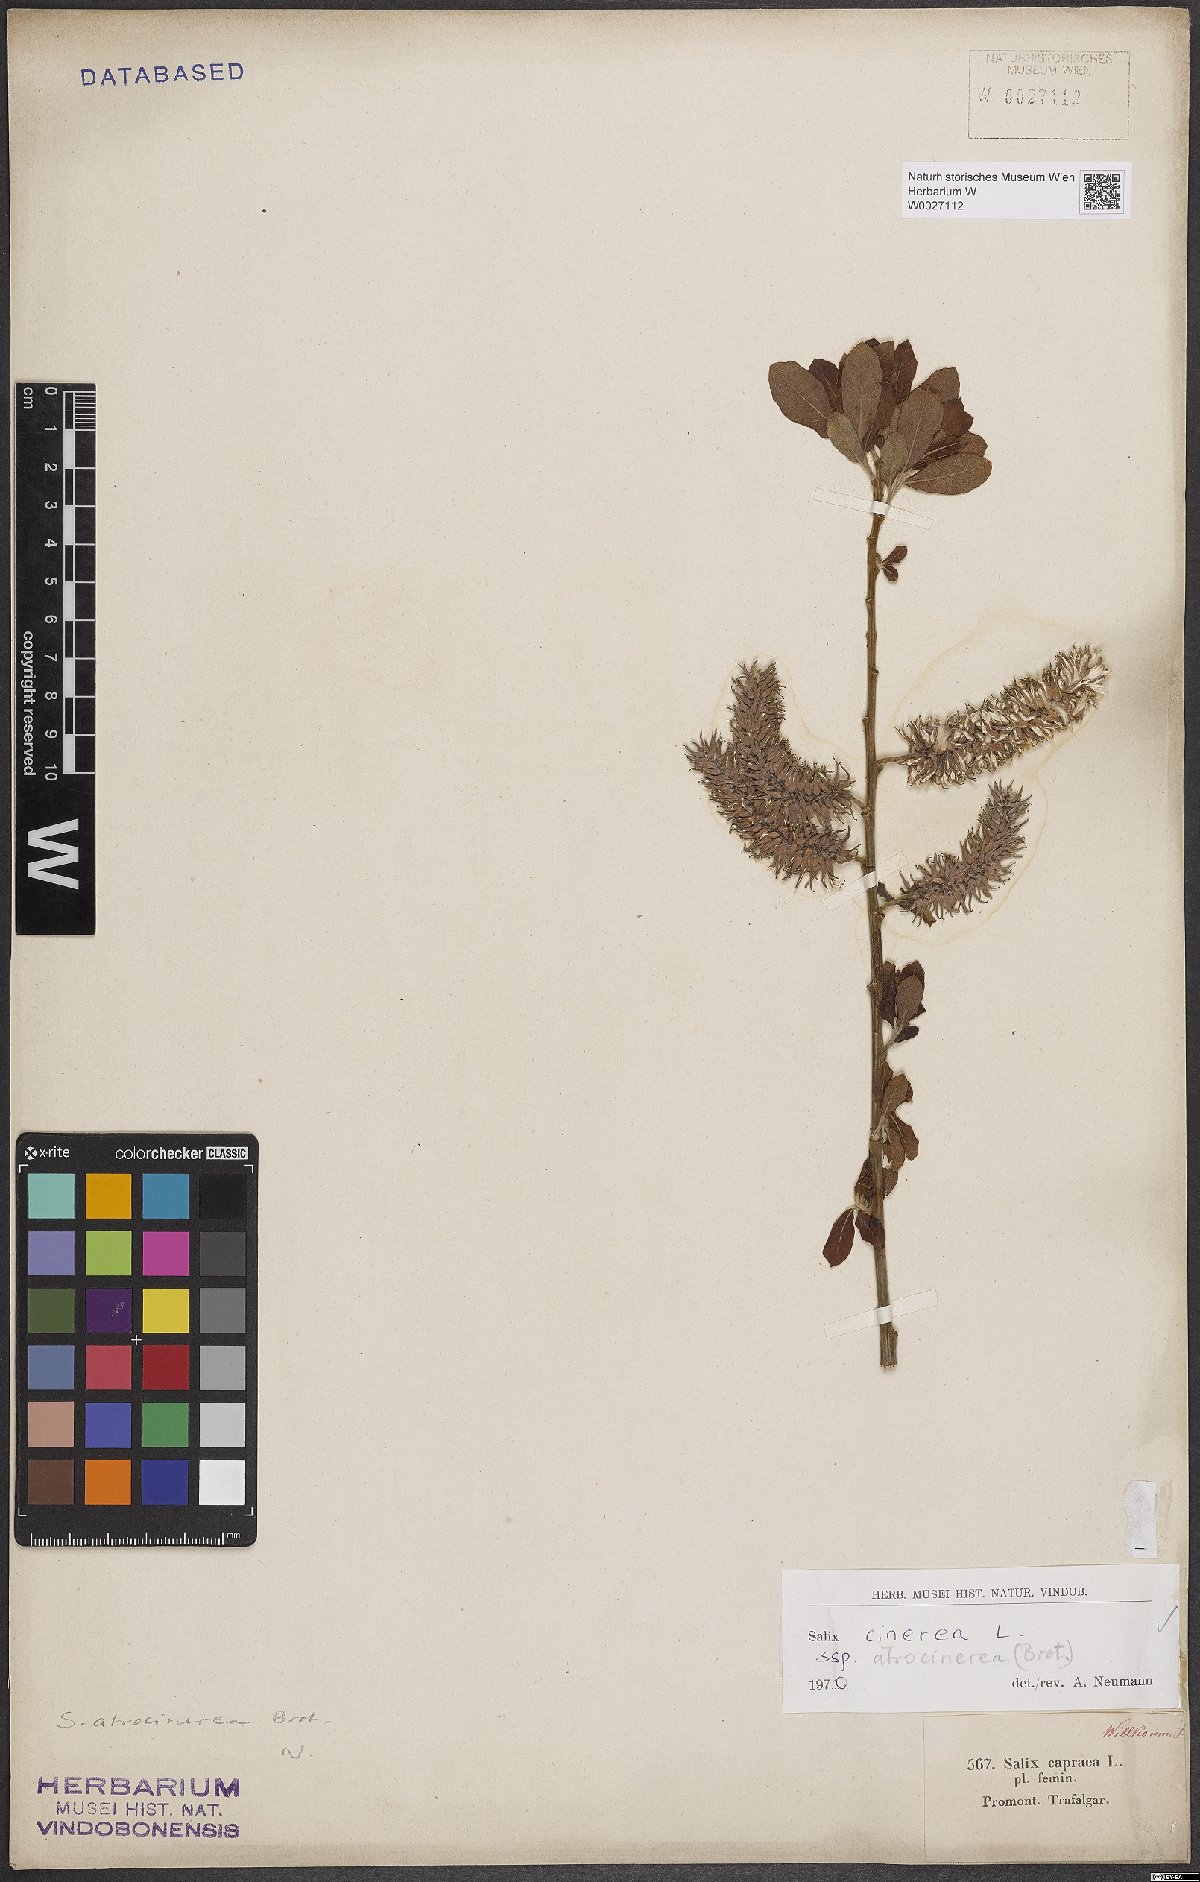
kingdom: Plantae
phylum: Tracheophyta
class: Magnoliopsida
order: Malpighiales
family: Salicaceae
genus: Salix
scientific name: Salix atrocinerea
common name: Rusty willow
